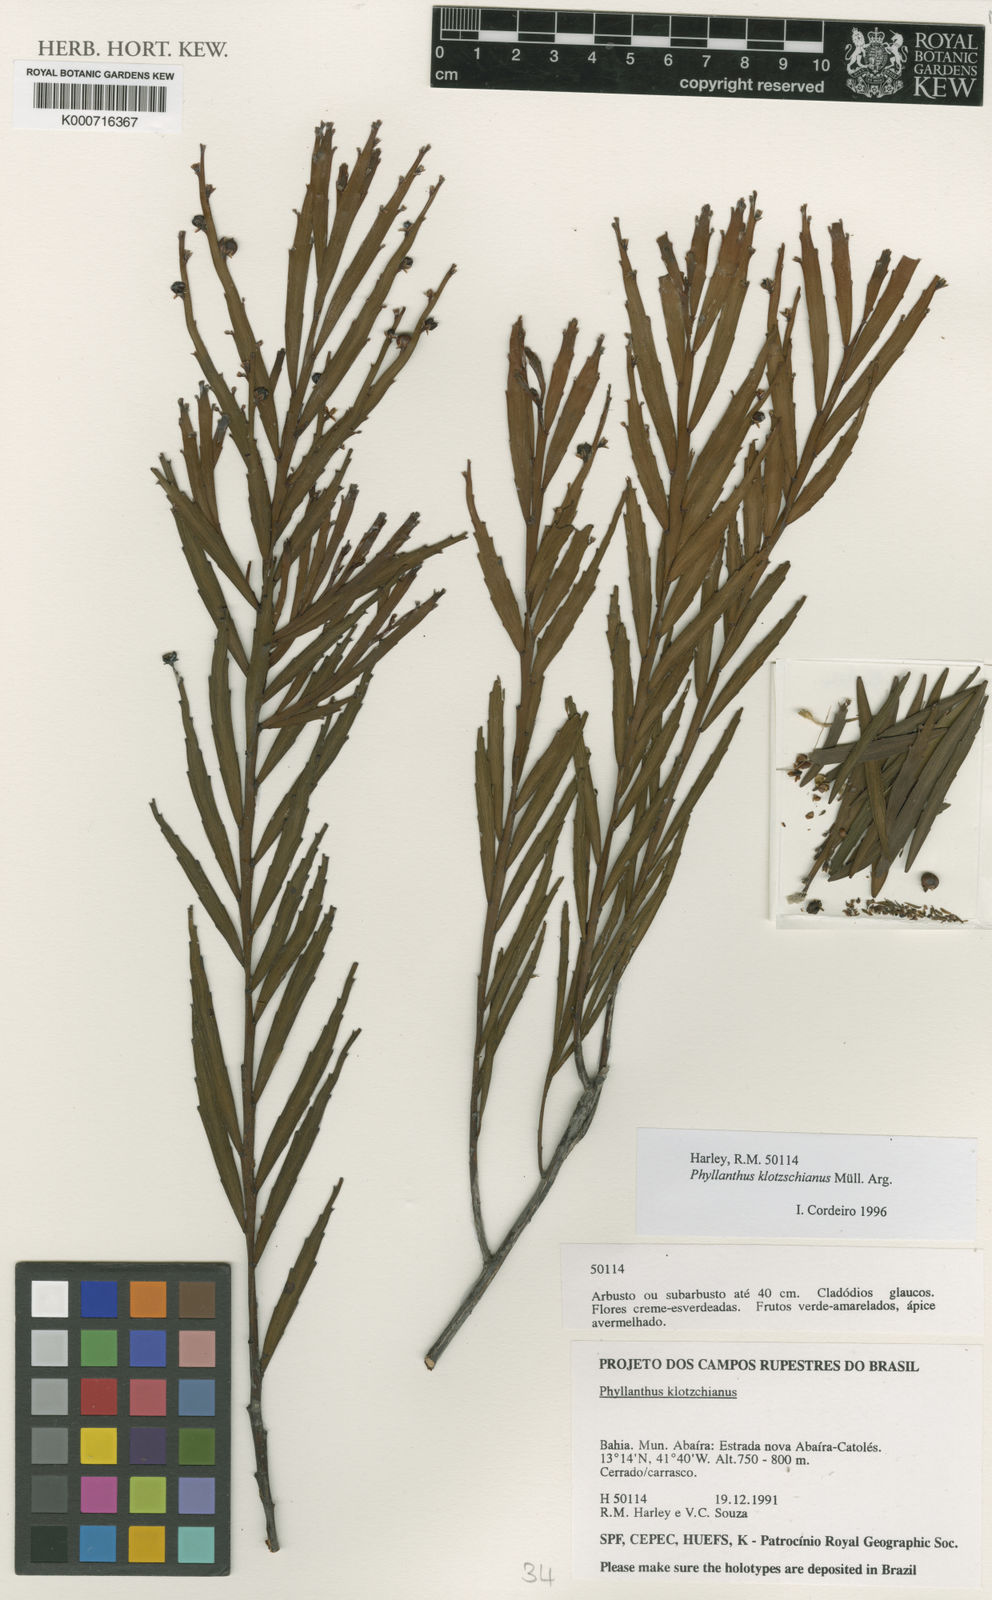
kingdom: Plantae
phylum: Tracheophyta
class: Magnoliopsida
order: Malpighiales
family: Phyllanthaceae
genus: Phyllanthus
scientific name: Phyllanthus
